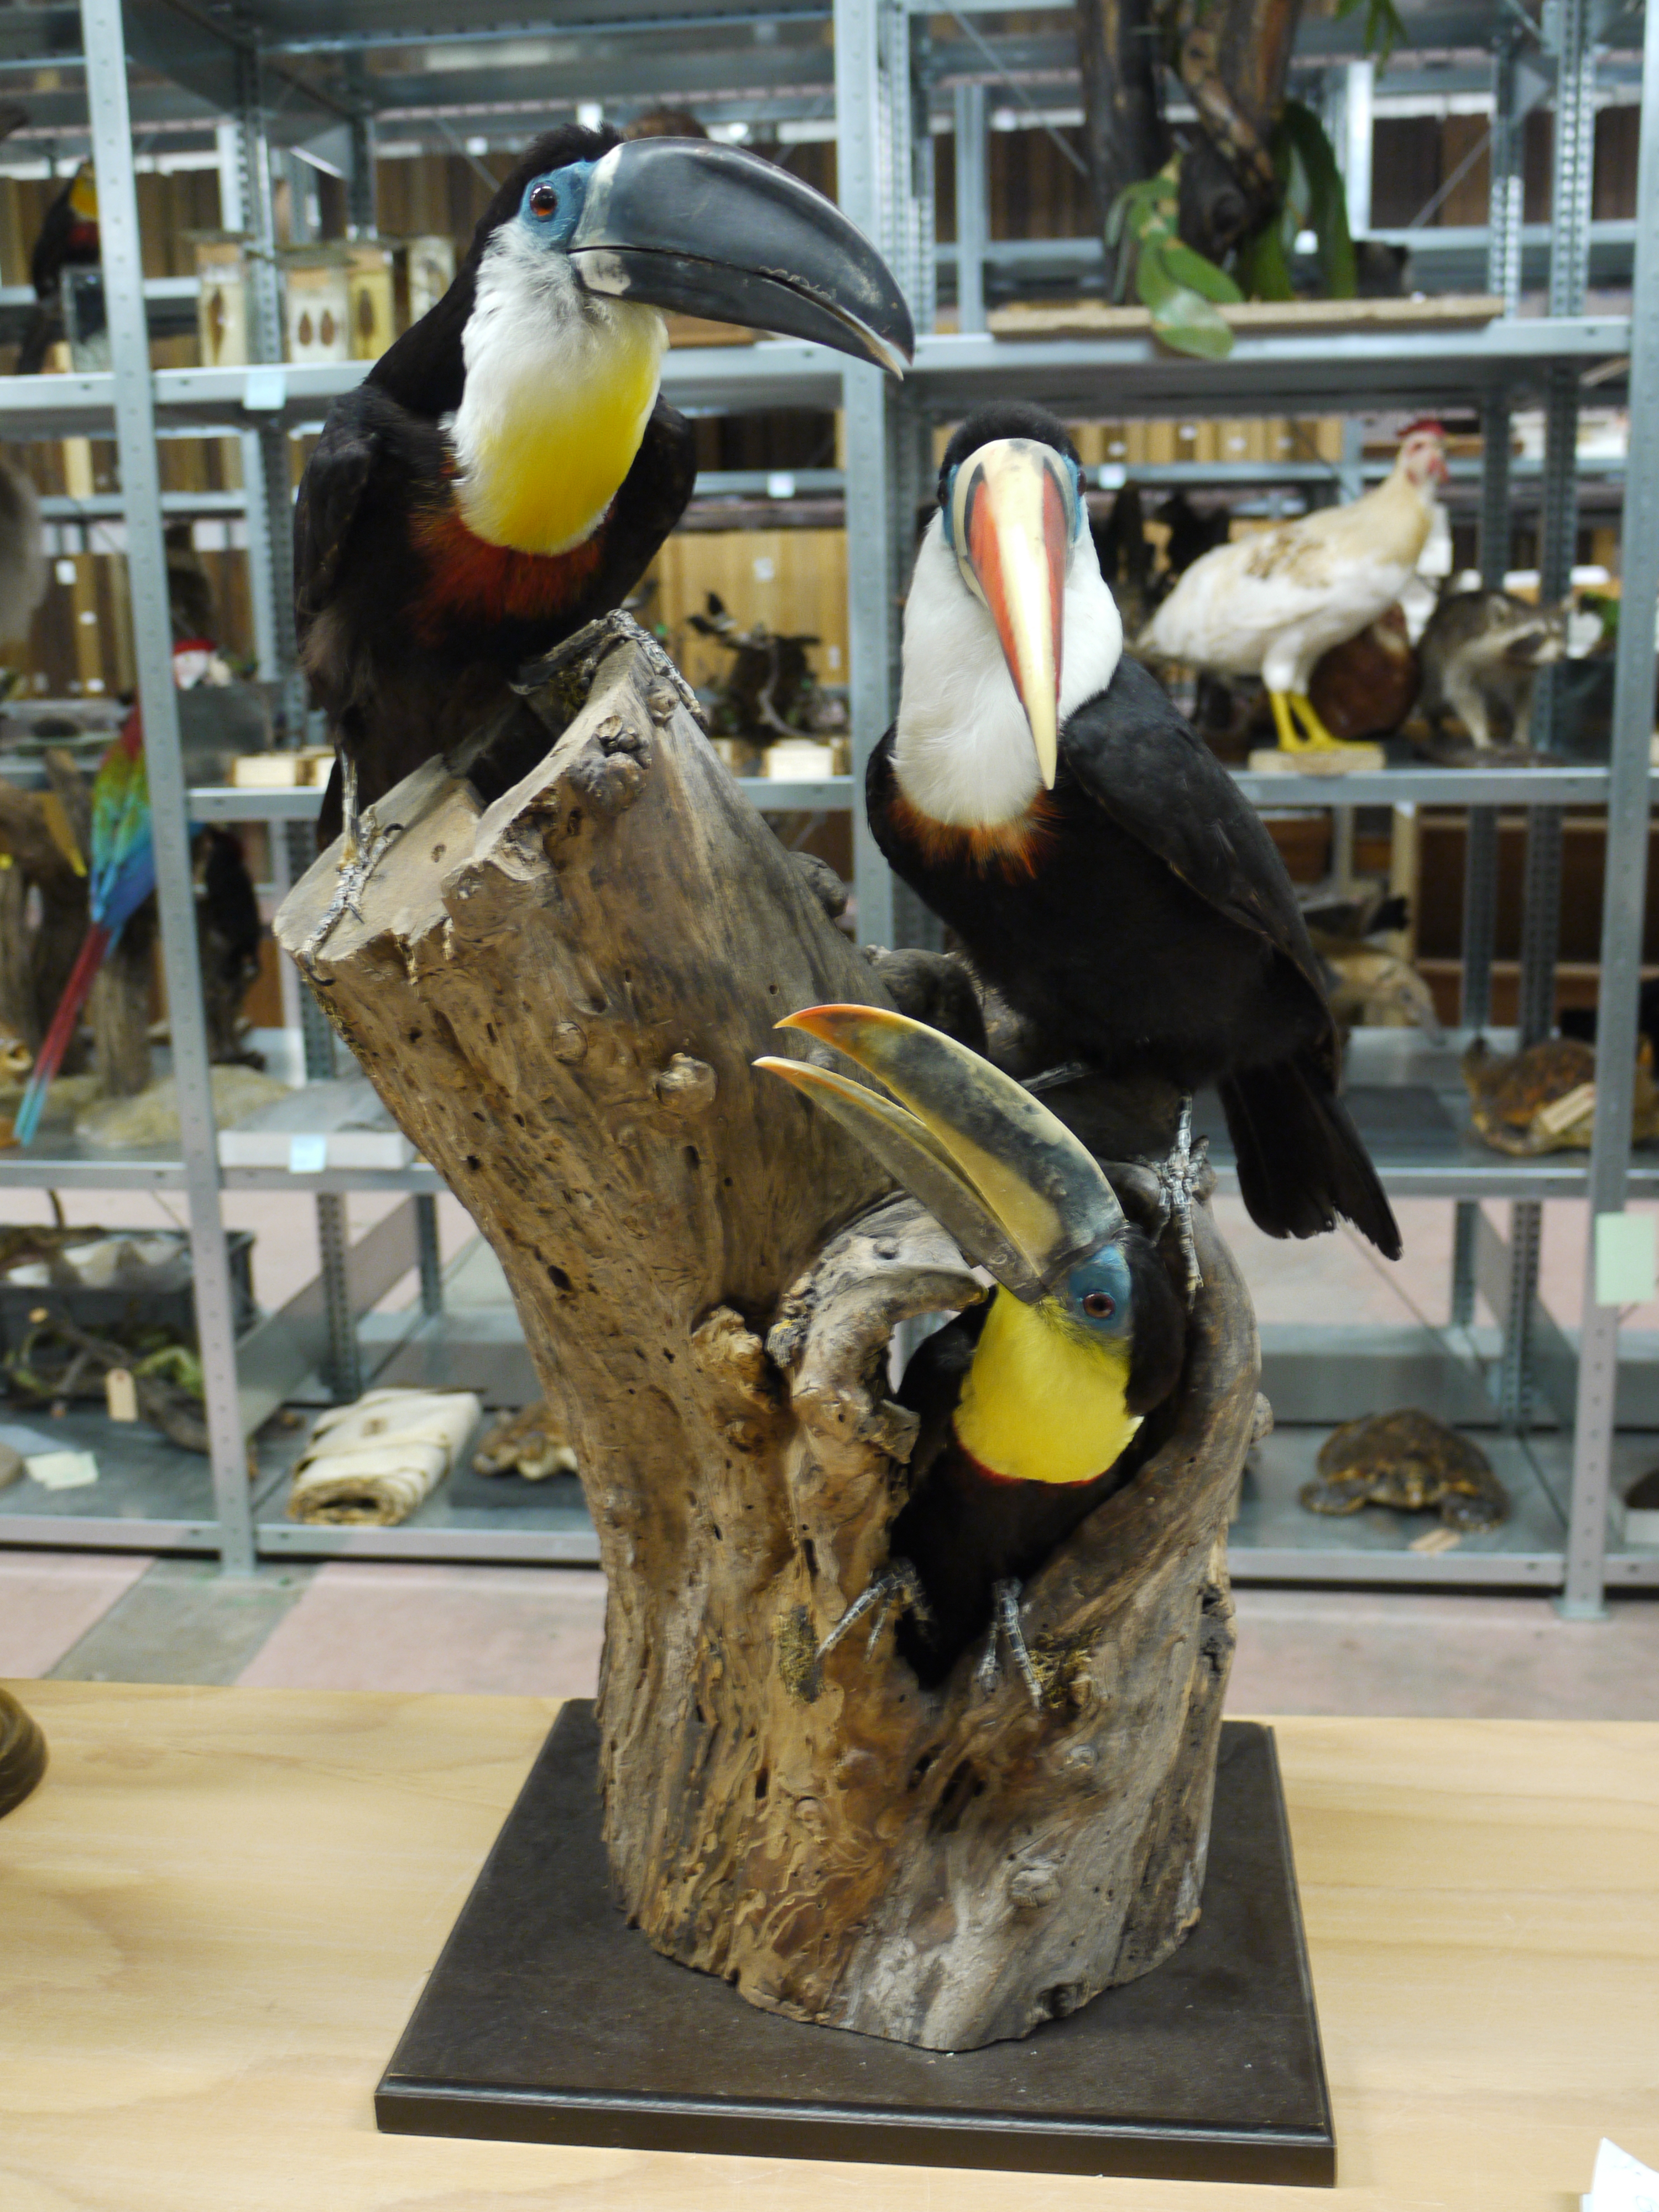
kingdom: Animalia
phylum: Chordata
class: Aves
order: Piciformes
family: Ramphastidae
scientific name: Ramphastidae
